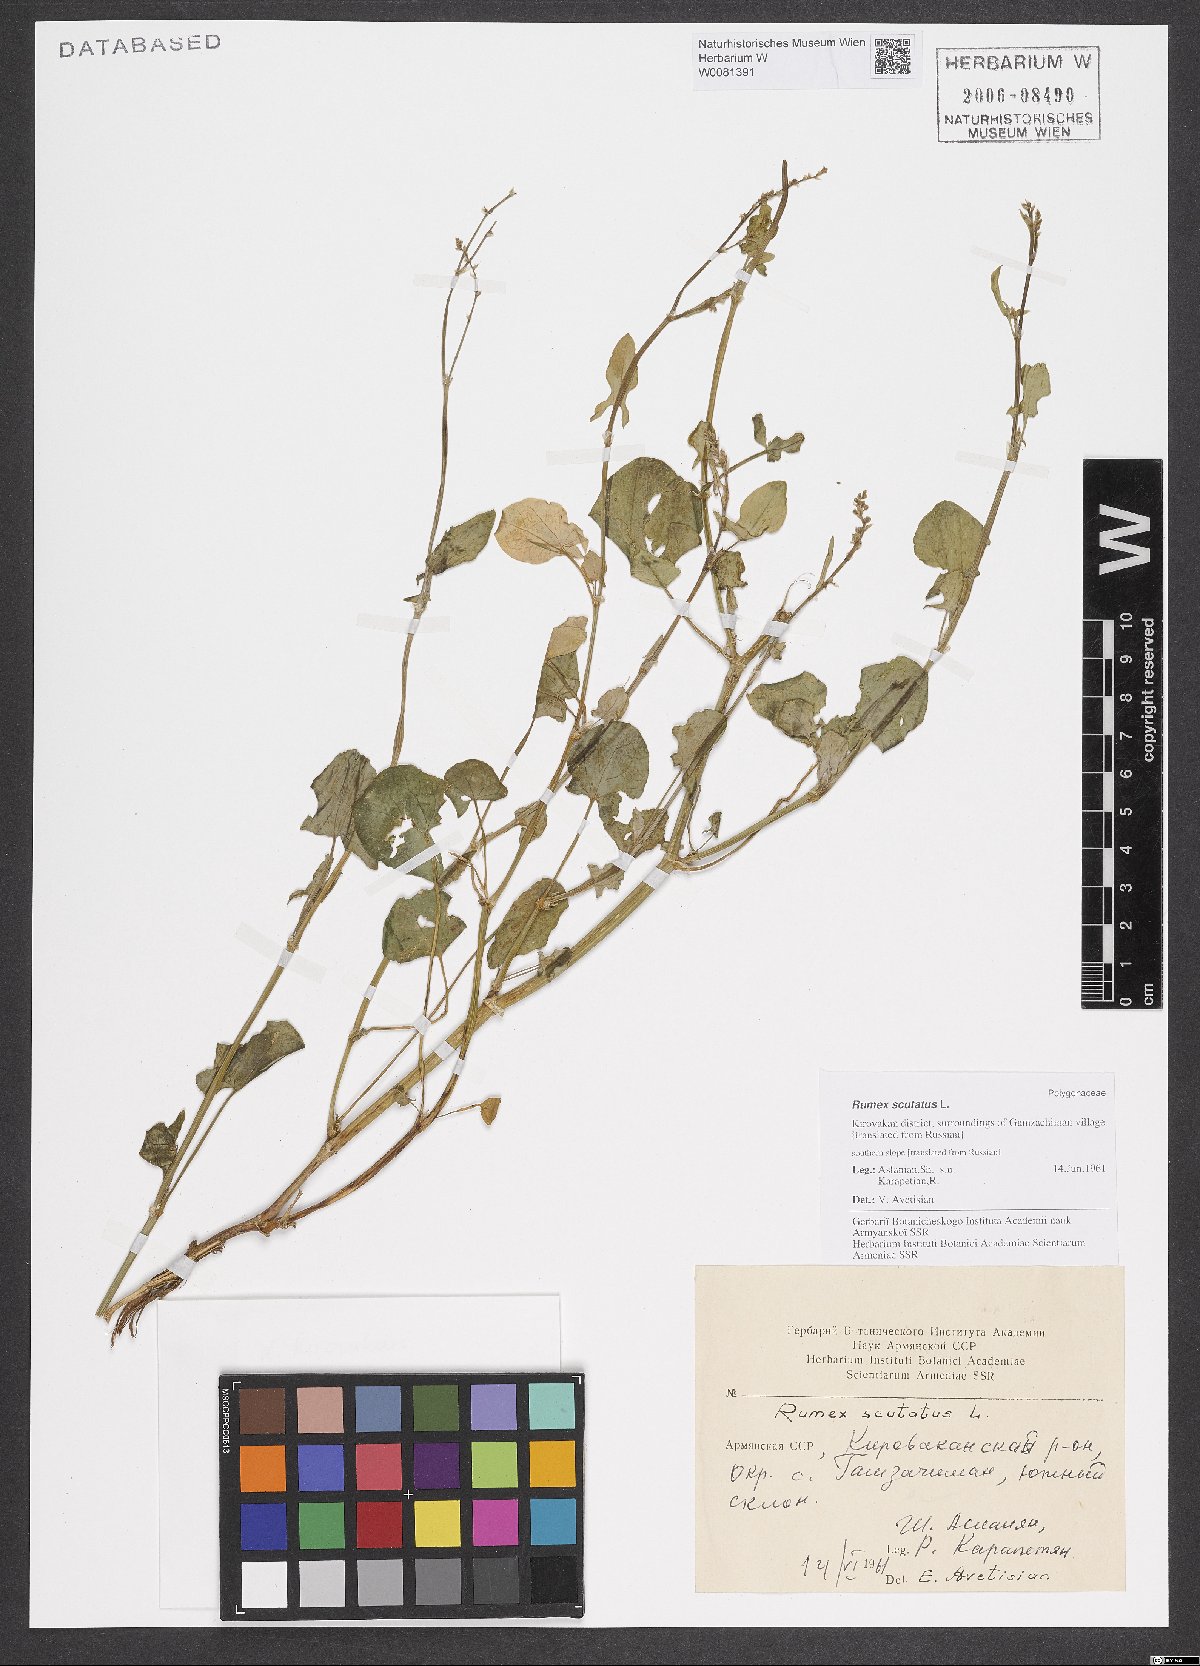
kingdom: Plantae
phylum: Tracheophyta
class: Magnoliopsida
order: Caryophyllales
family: Polygonaceae
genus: Rumex
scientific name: Rumex scutatus
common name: French sorrel
